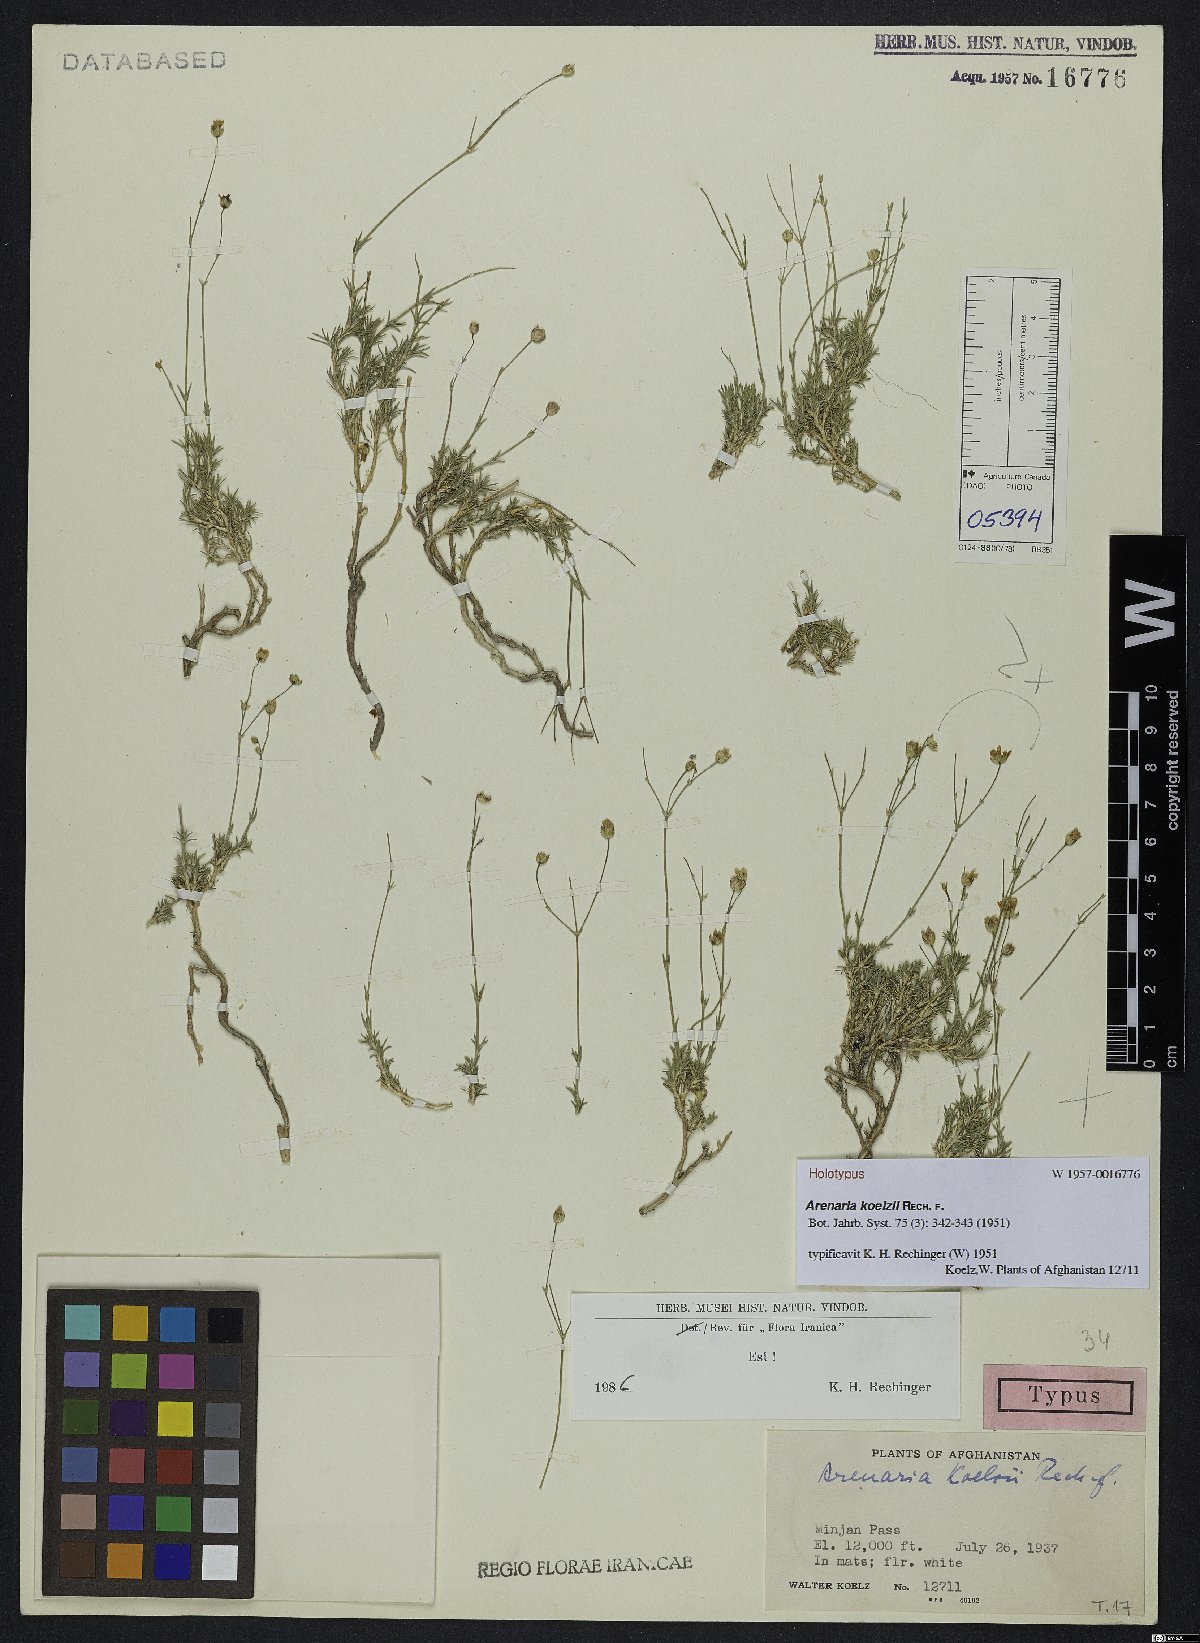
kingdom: Plantae
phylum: Tracheophyta
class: Magnoliopsida
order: Caryophyllales
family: Caryophyllaceae
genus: Eremogone
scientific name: Eremogone koelzii
